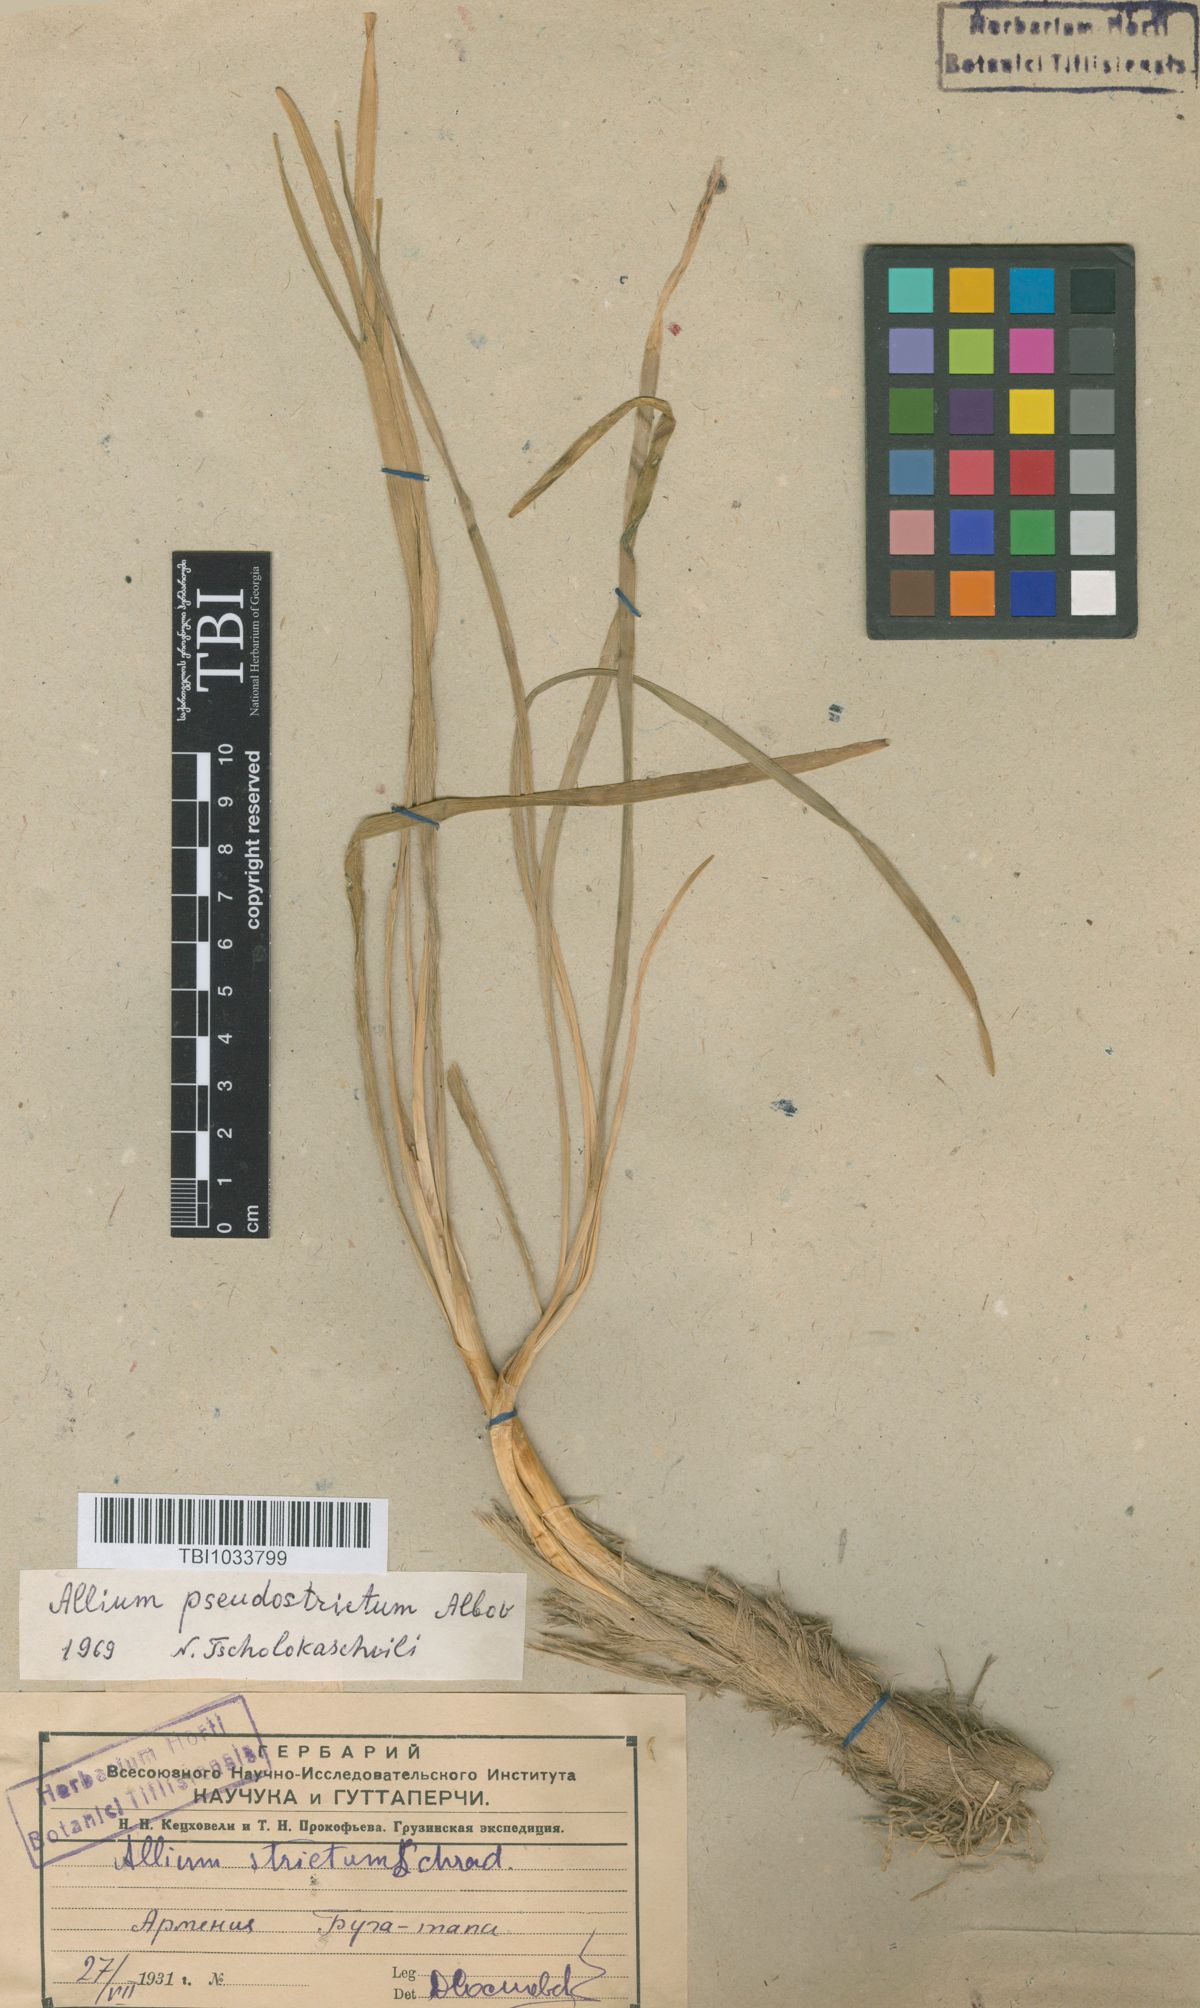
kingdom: Plantae
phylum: Tracheophyta
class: Liliopsida
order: Asparagales
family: Amaryllidaceae
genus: Allium
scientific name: Allium pseudostrictum
